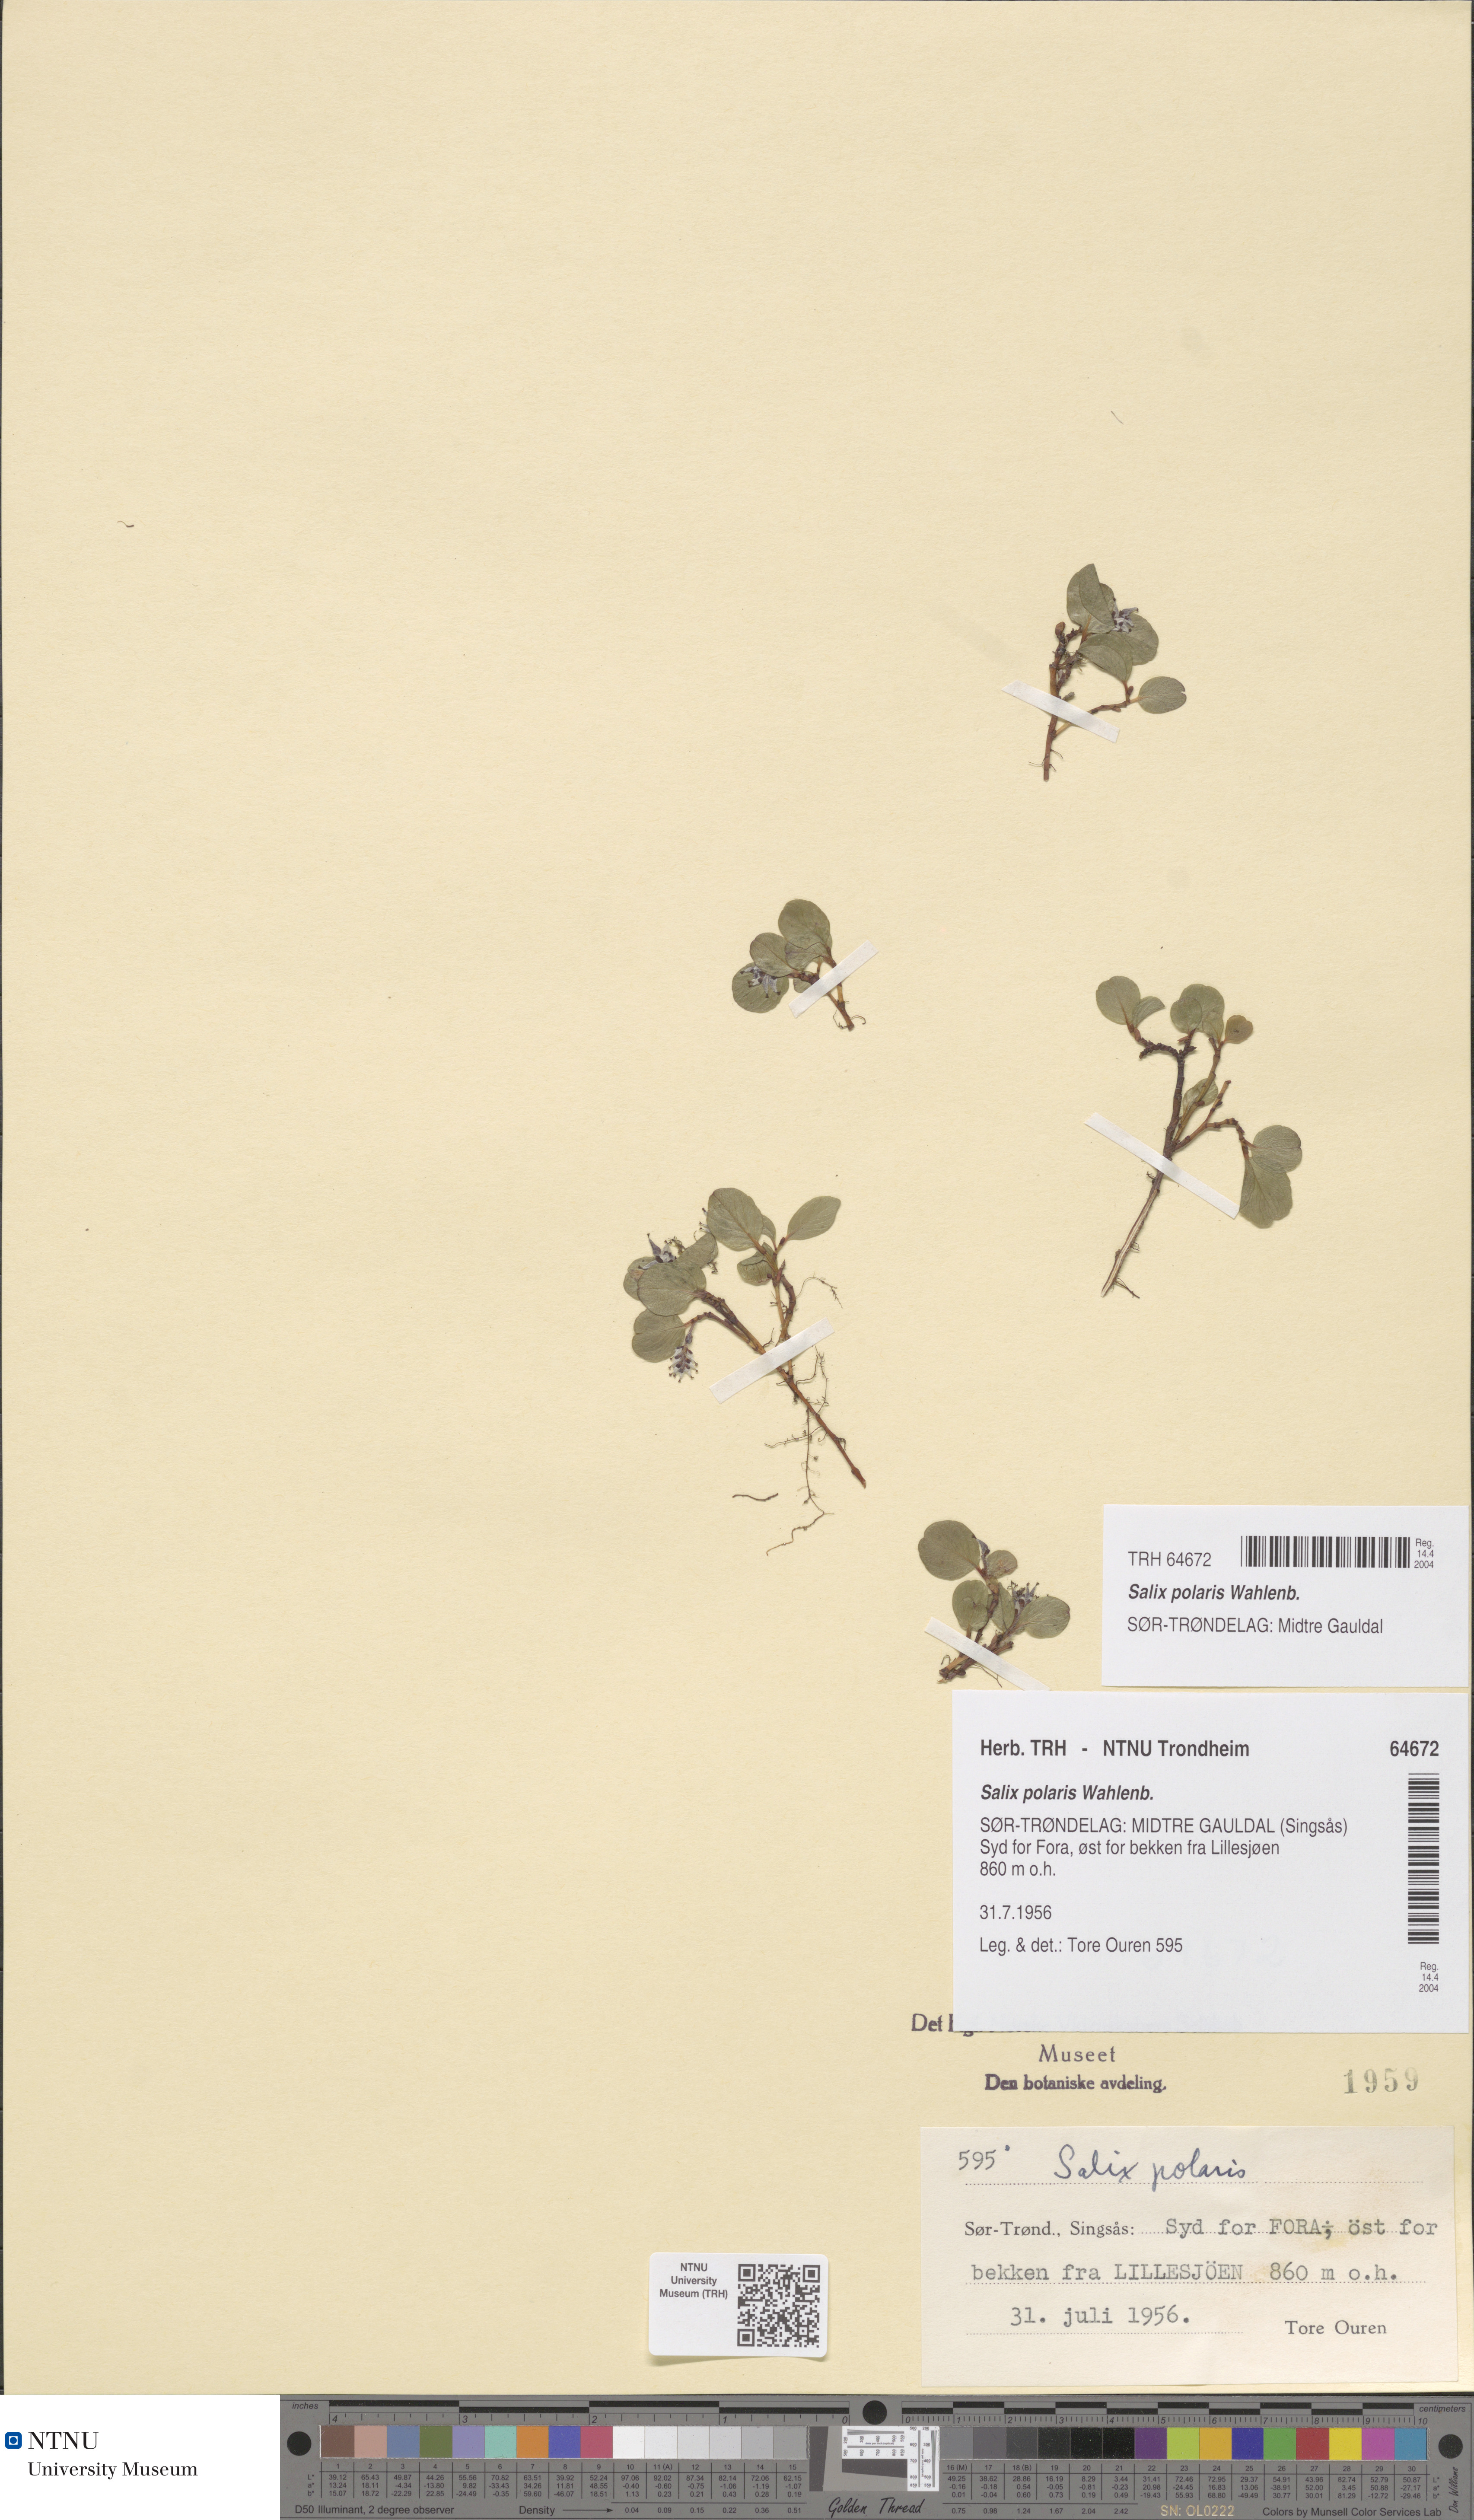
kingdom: Plantae
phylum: Tracheophyta
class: Magnoliopsida
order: Malpighiales
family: Salicaceae
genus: Salix
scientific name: Salix polaris
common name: Polar willow
